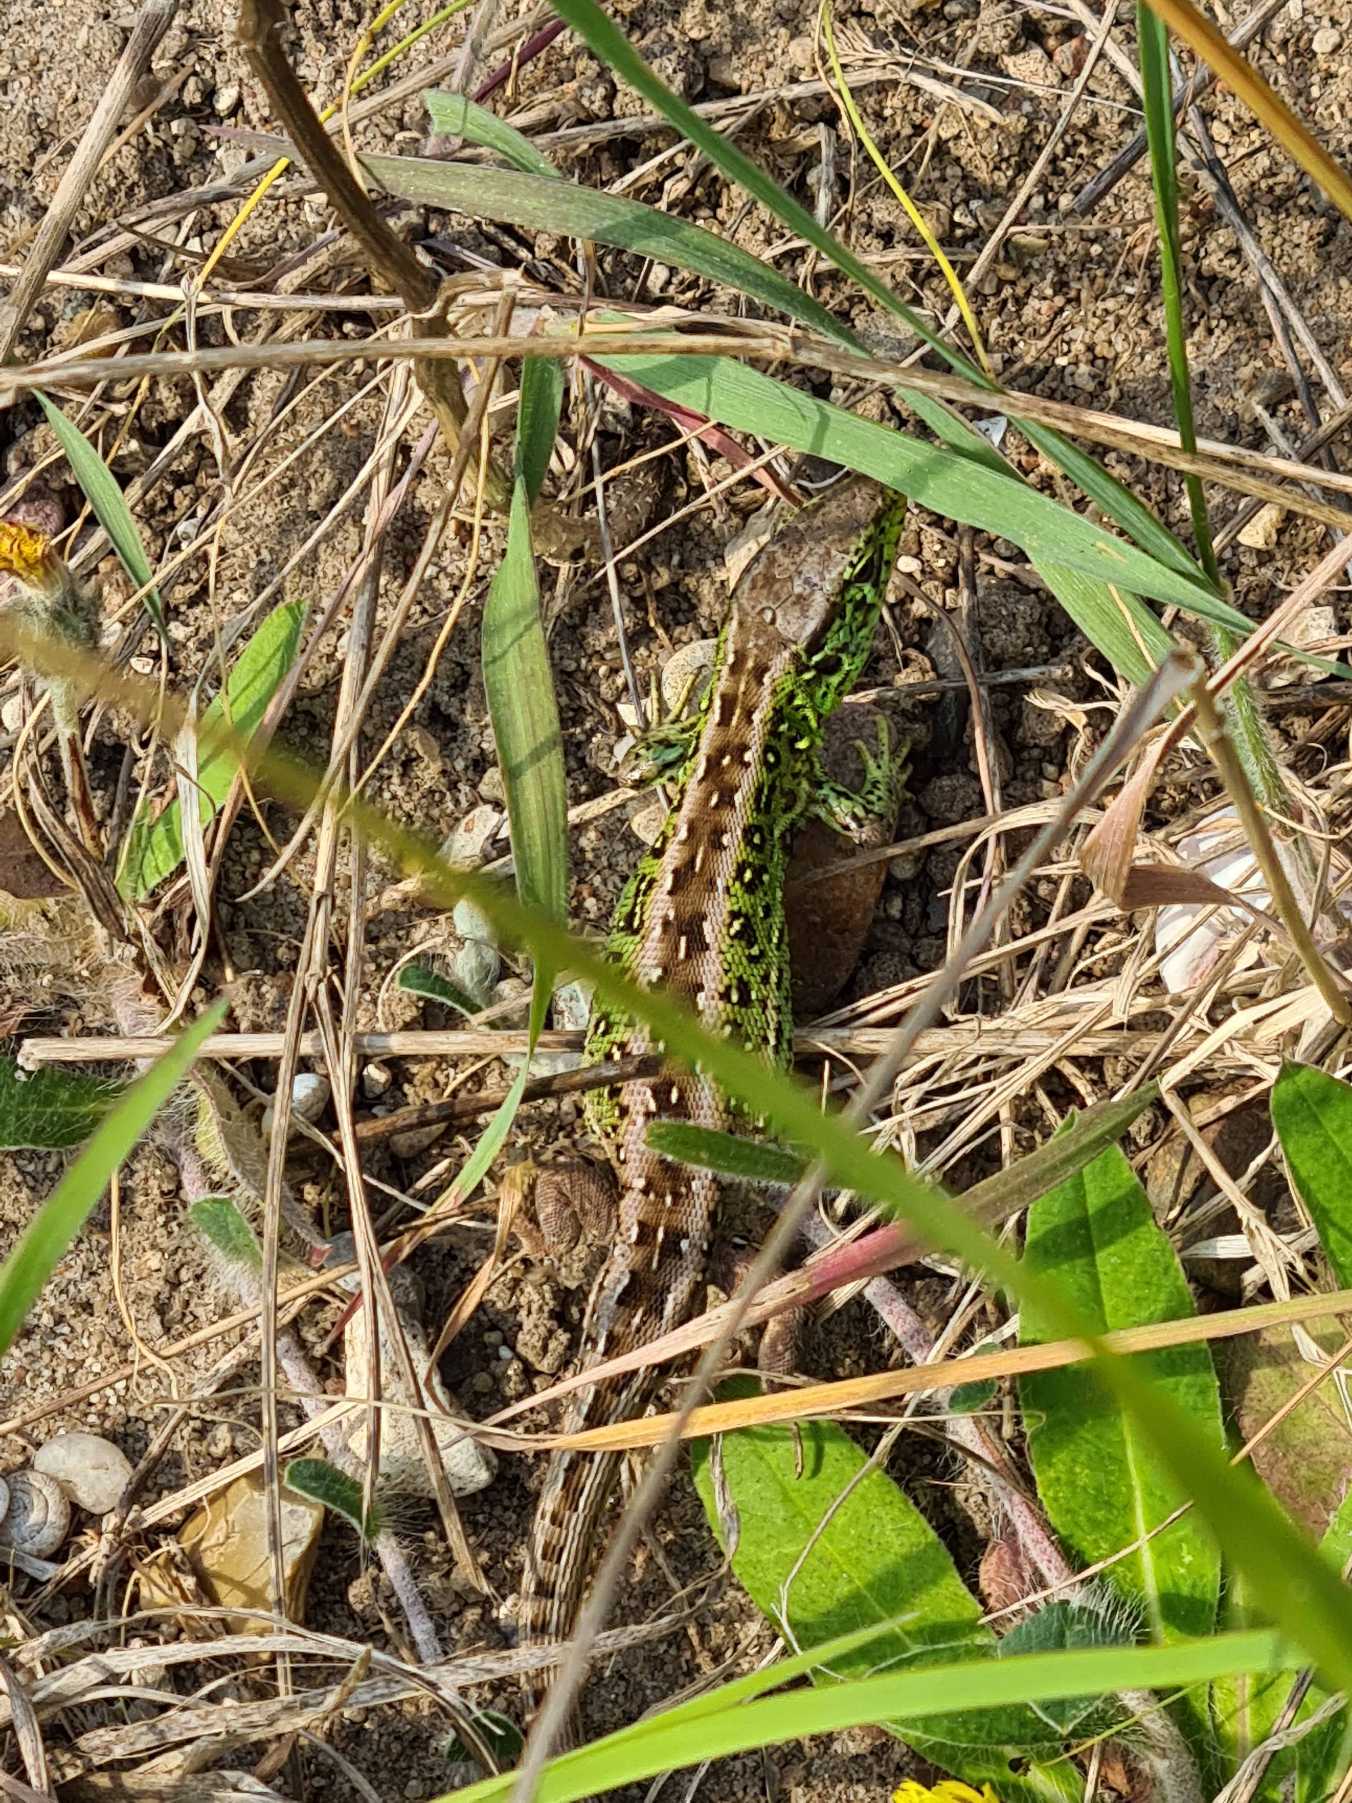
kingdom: Animalia
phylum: Chordata
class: Squamata
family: Lacertidae
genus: Lacerta
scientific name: Lacerta agilis
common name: Markfirben
